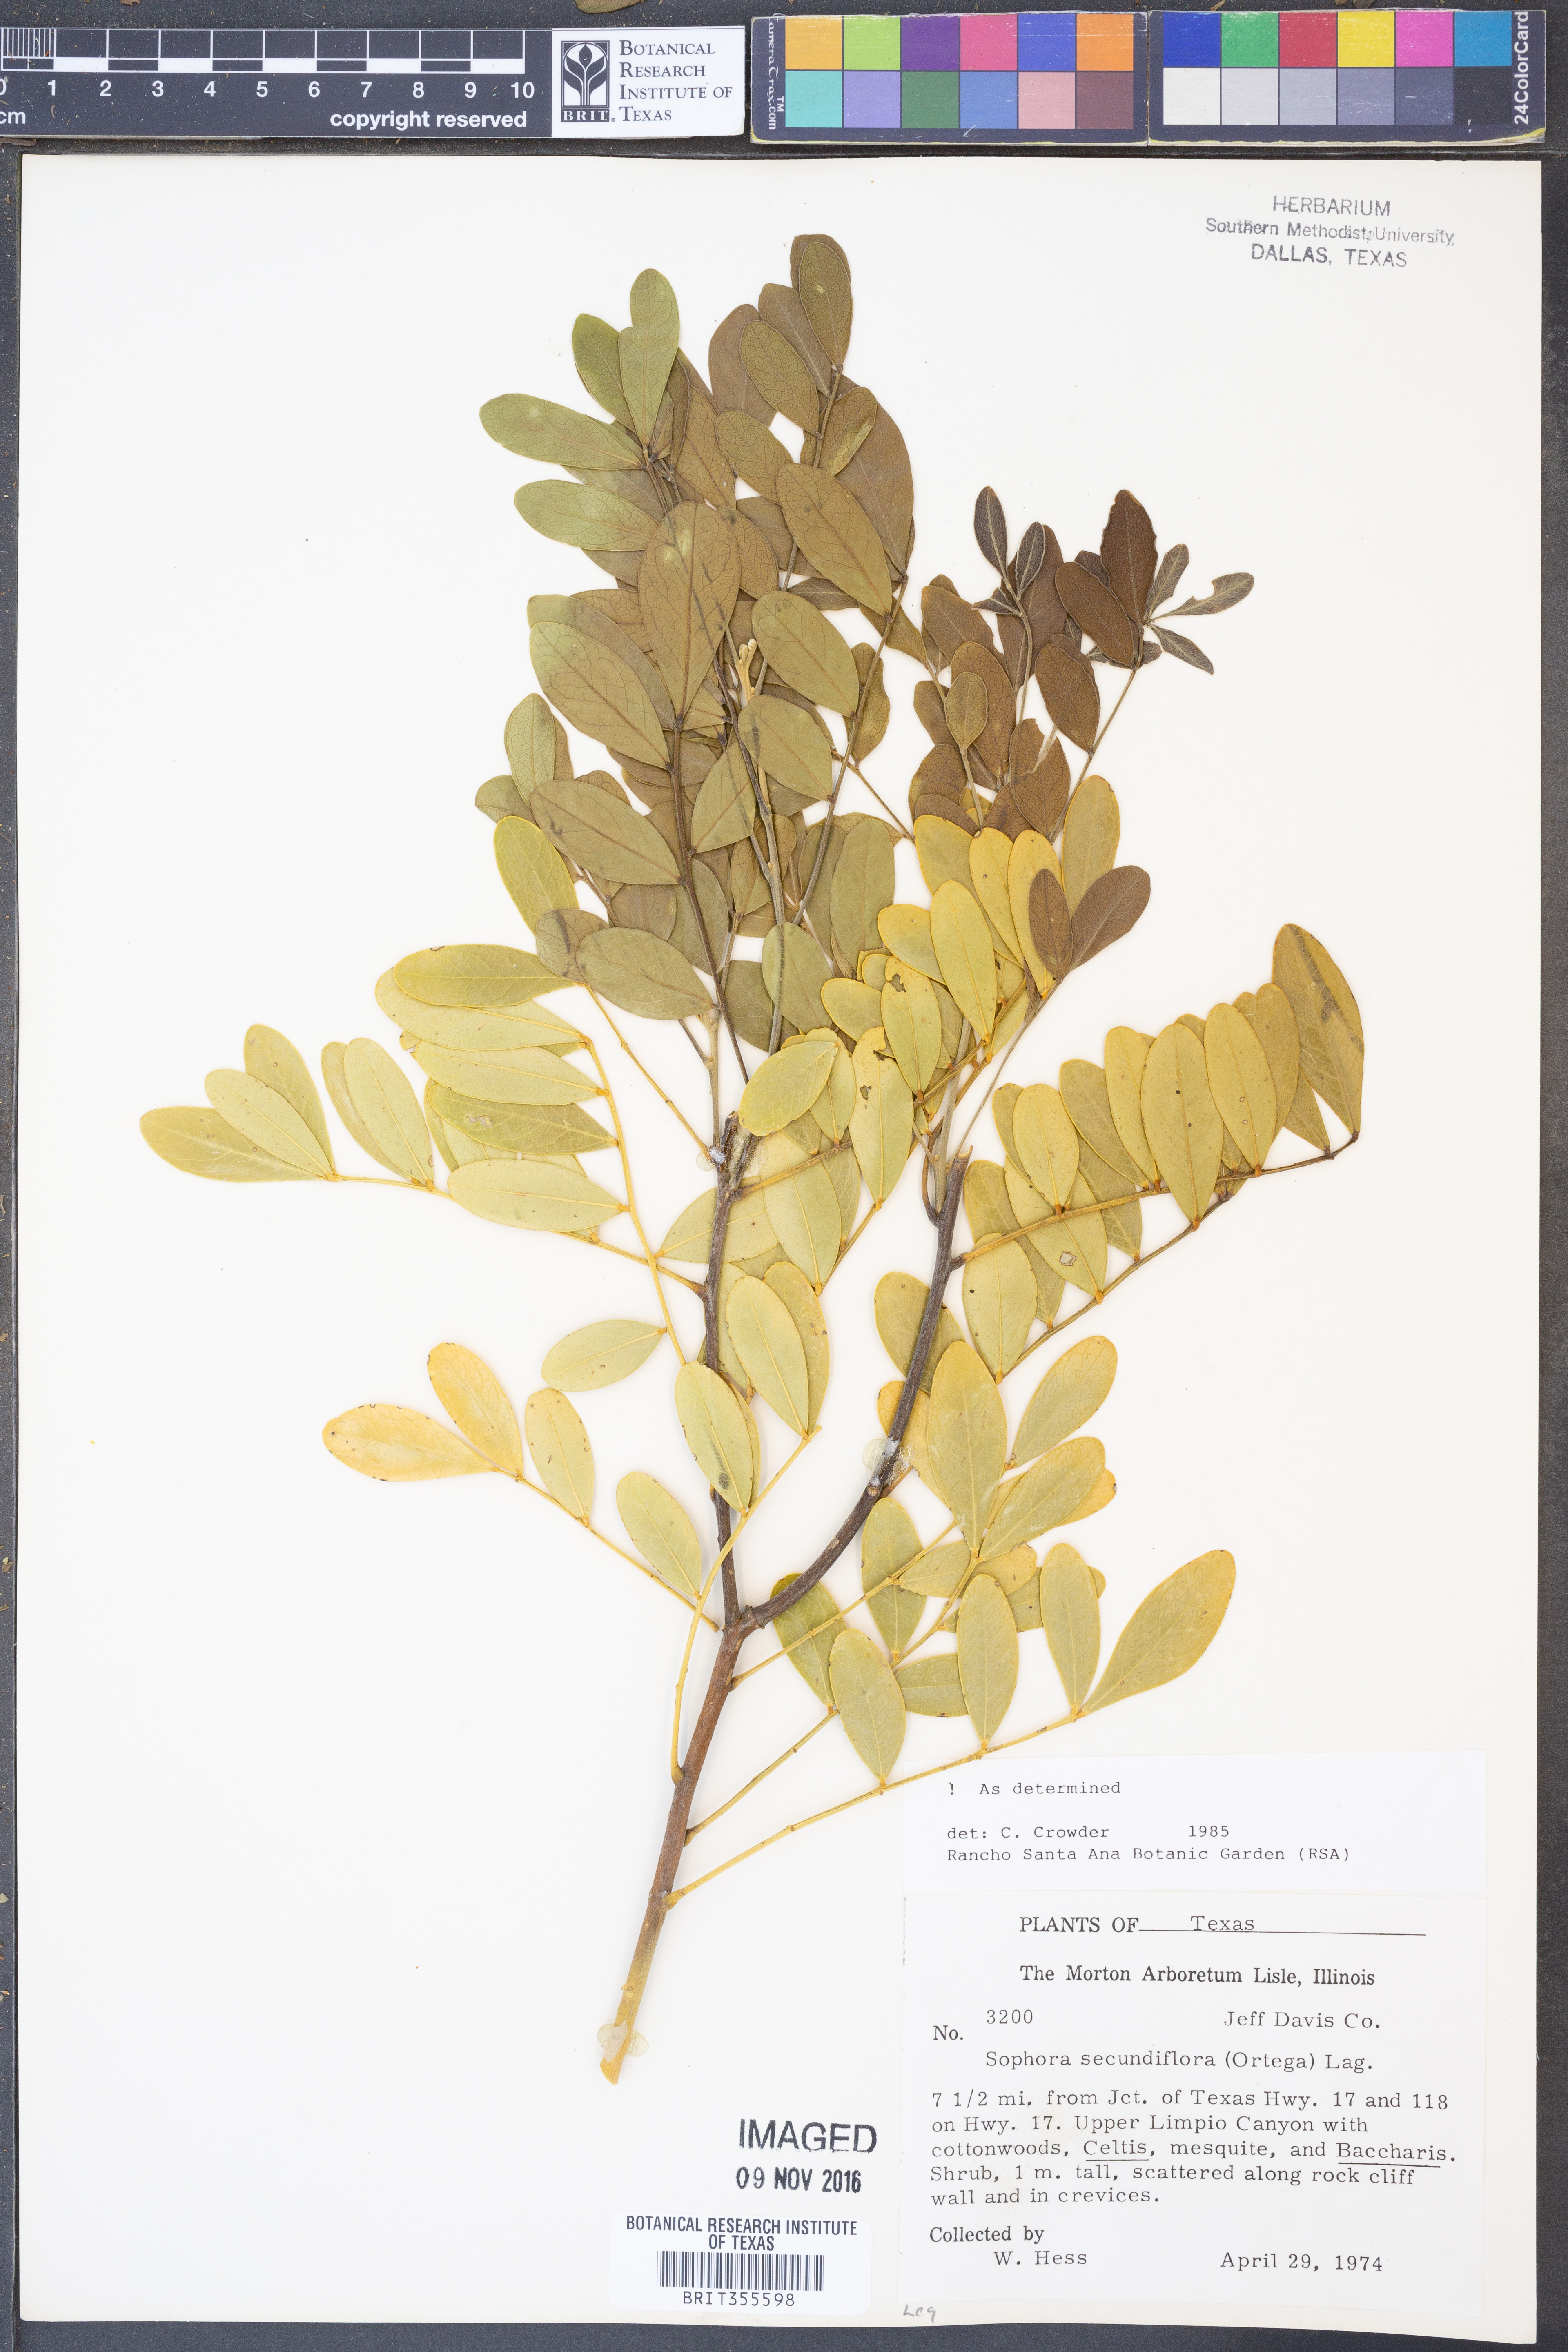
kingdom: Plantae
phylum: Tracheophyta
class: Magnoliopsida
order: Fabales
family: Fabaceae
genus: Dermatophyllum
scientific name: Dermatophyllum secundiflorum
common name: Texas-mountain-laurel
